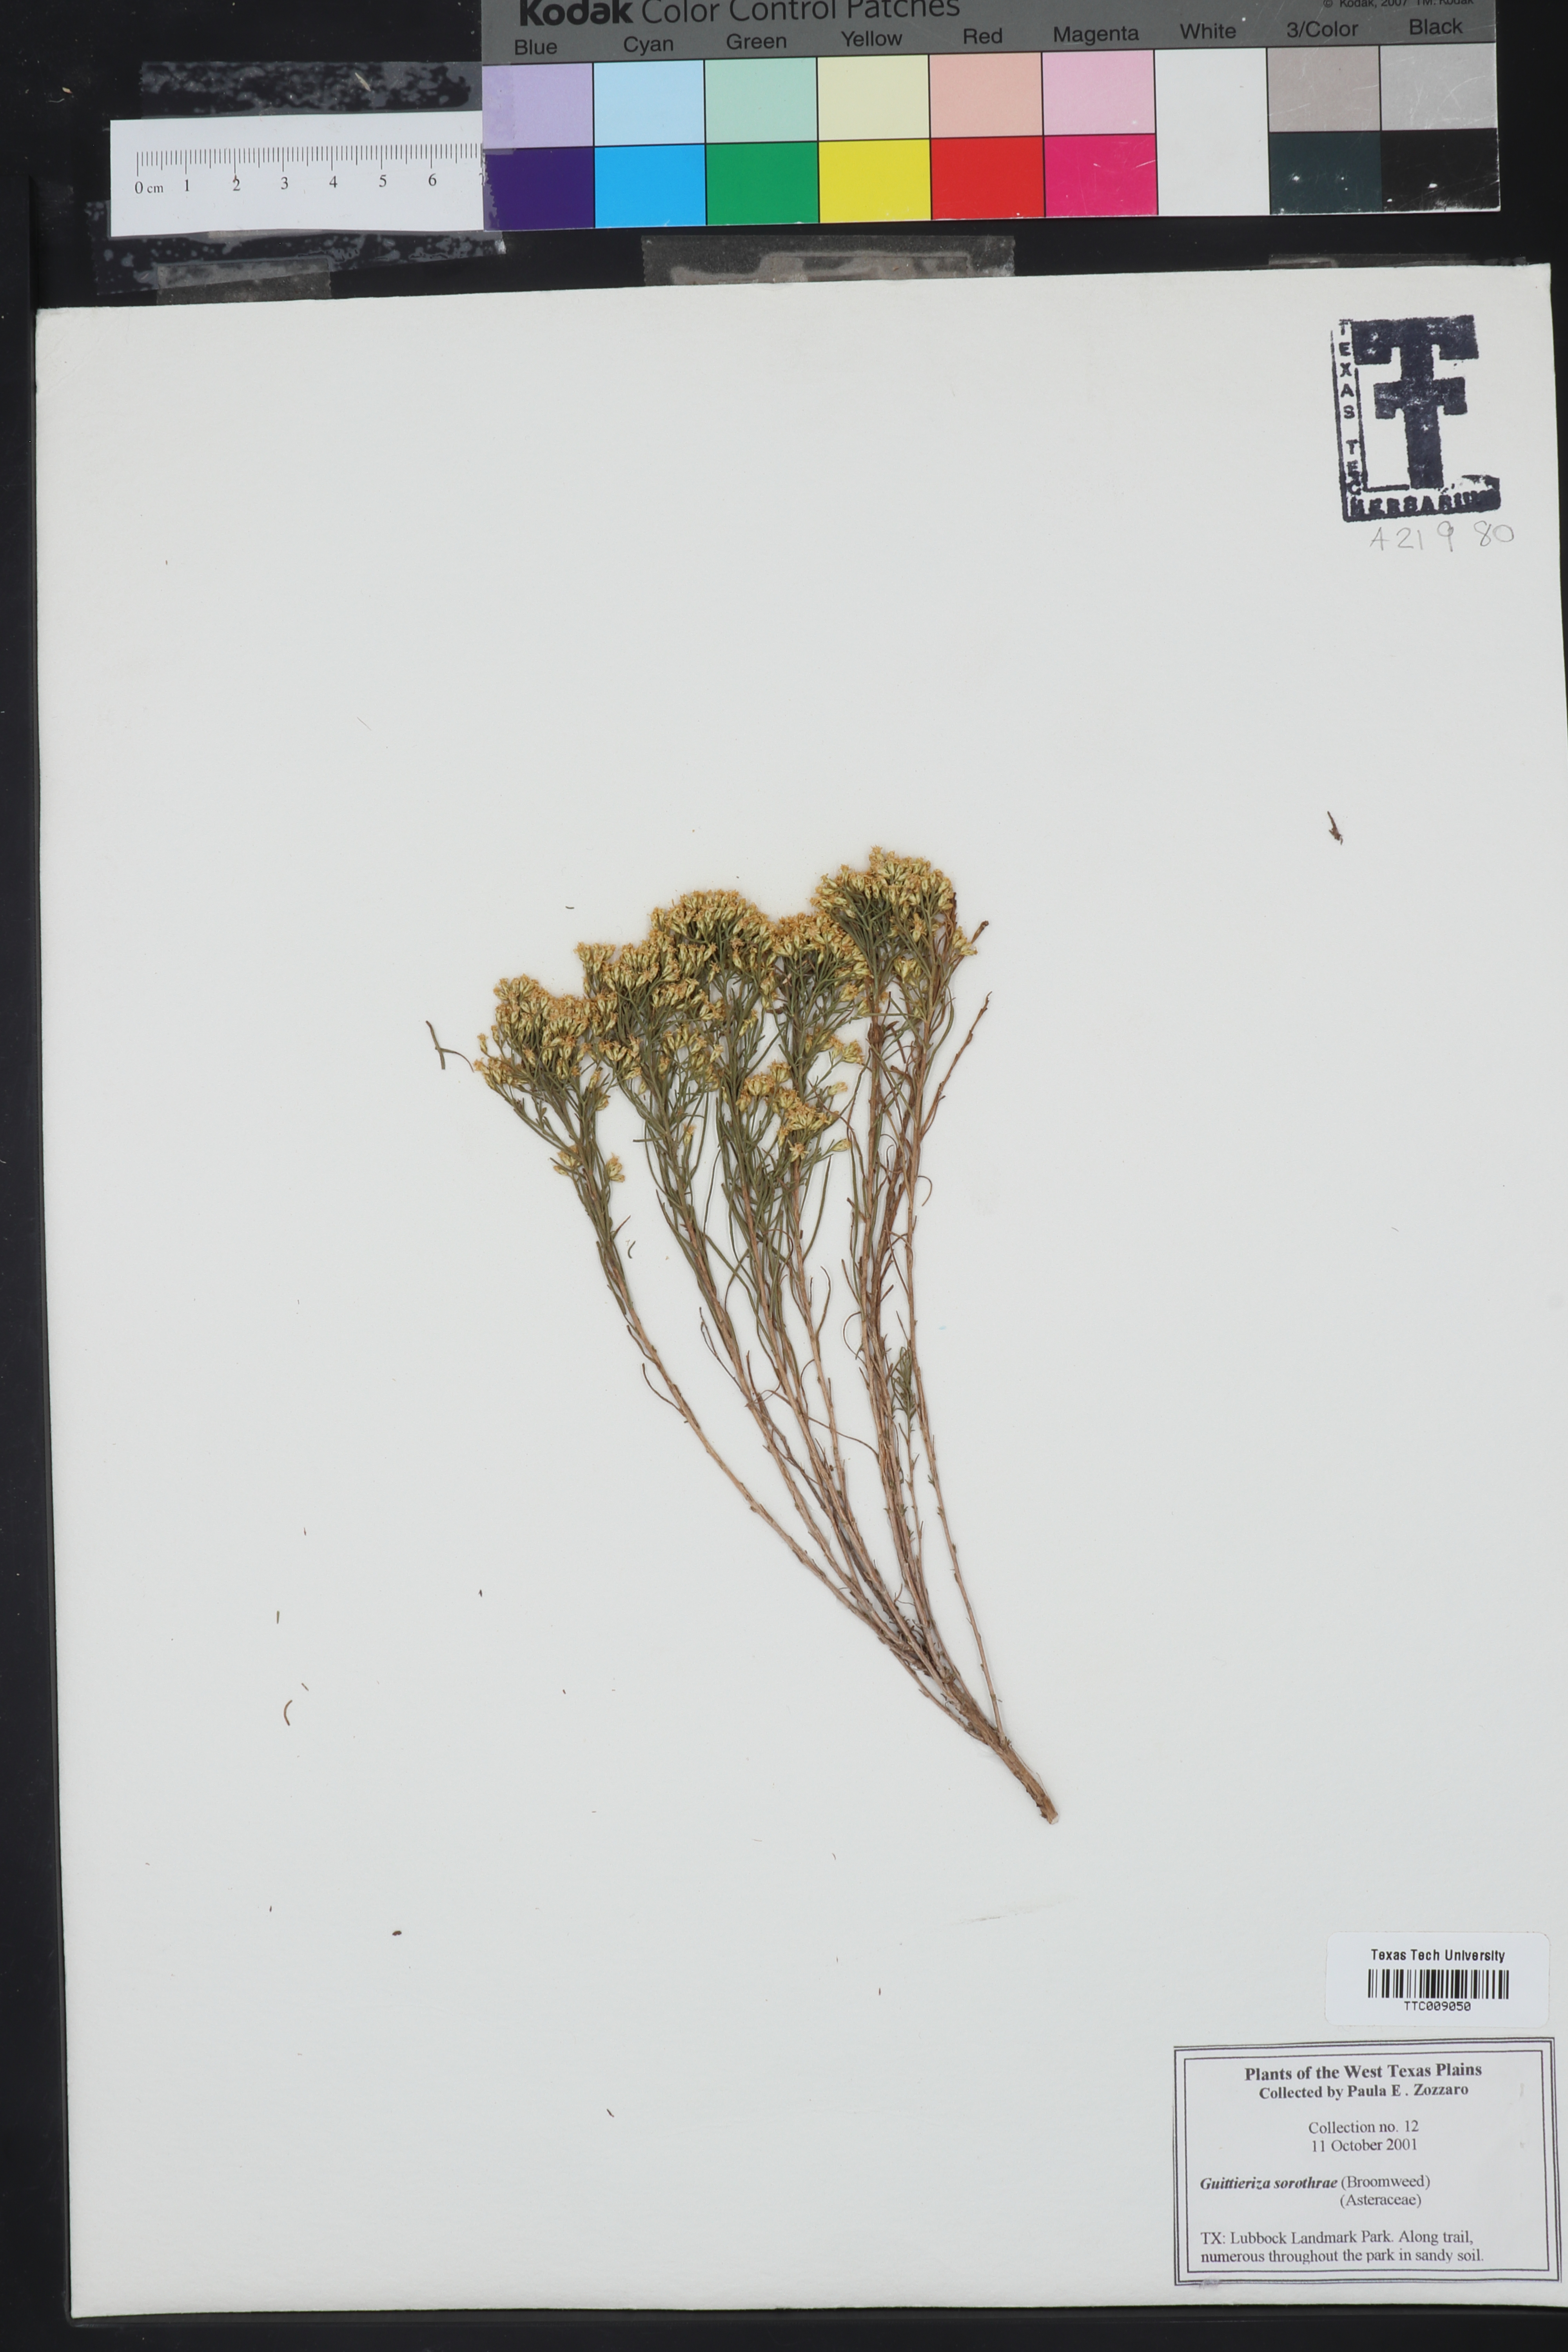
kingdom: Plantae
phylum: Tracheophyta
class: Magnoliopsida
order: Asterales
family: Asteraceae
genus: Gutierrezia
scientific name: Gutierrezia sarothrae
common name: Broom snakeweed
